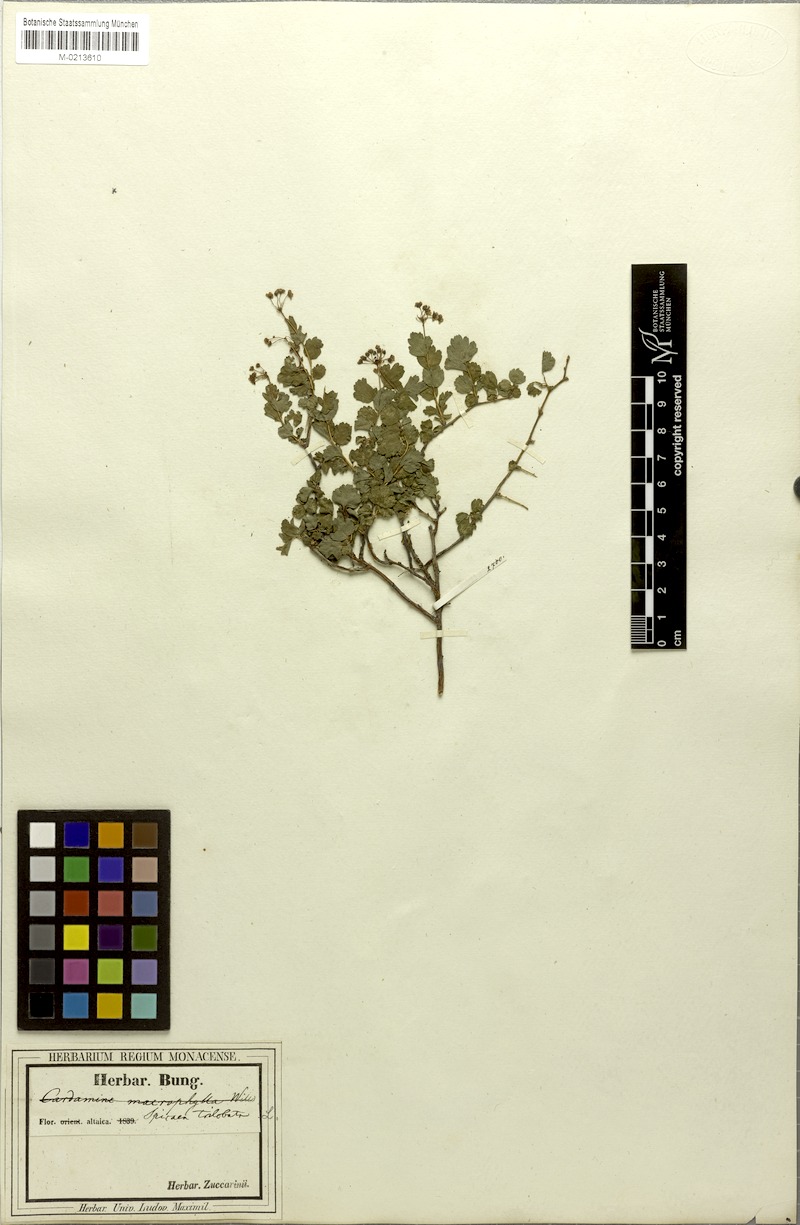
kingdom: Plantae
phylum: Tracheophyta
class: Magnoliopsida
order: Rosales
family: Rosaceae
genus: Spiraea
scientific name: Spiraea trilobata
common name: Asian meadowsweet
